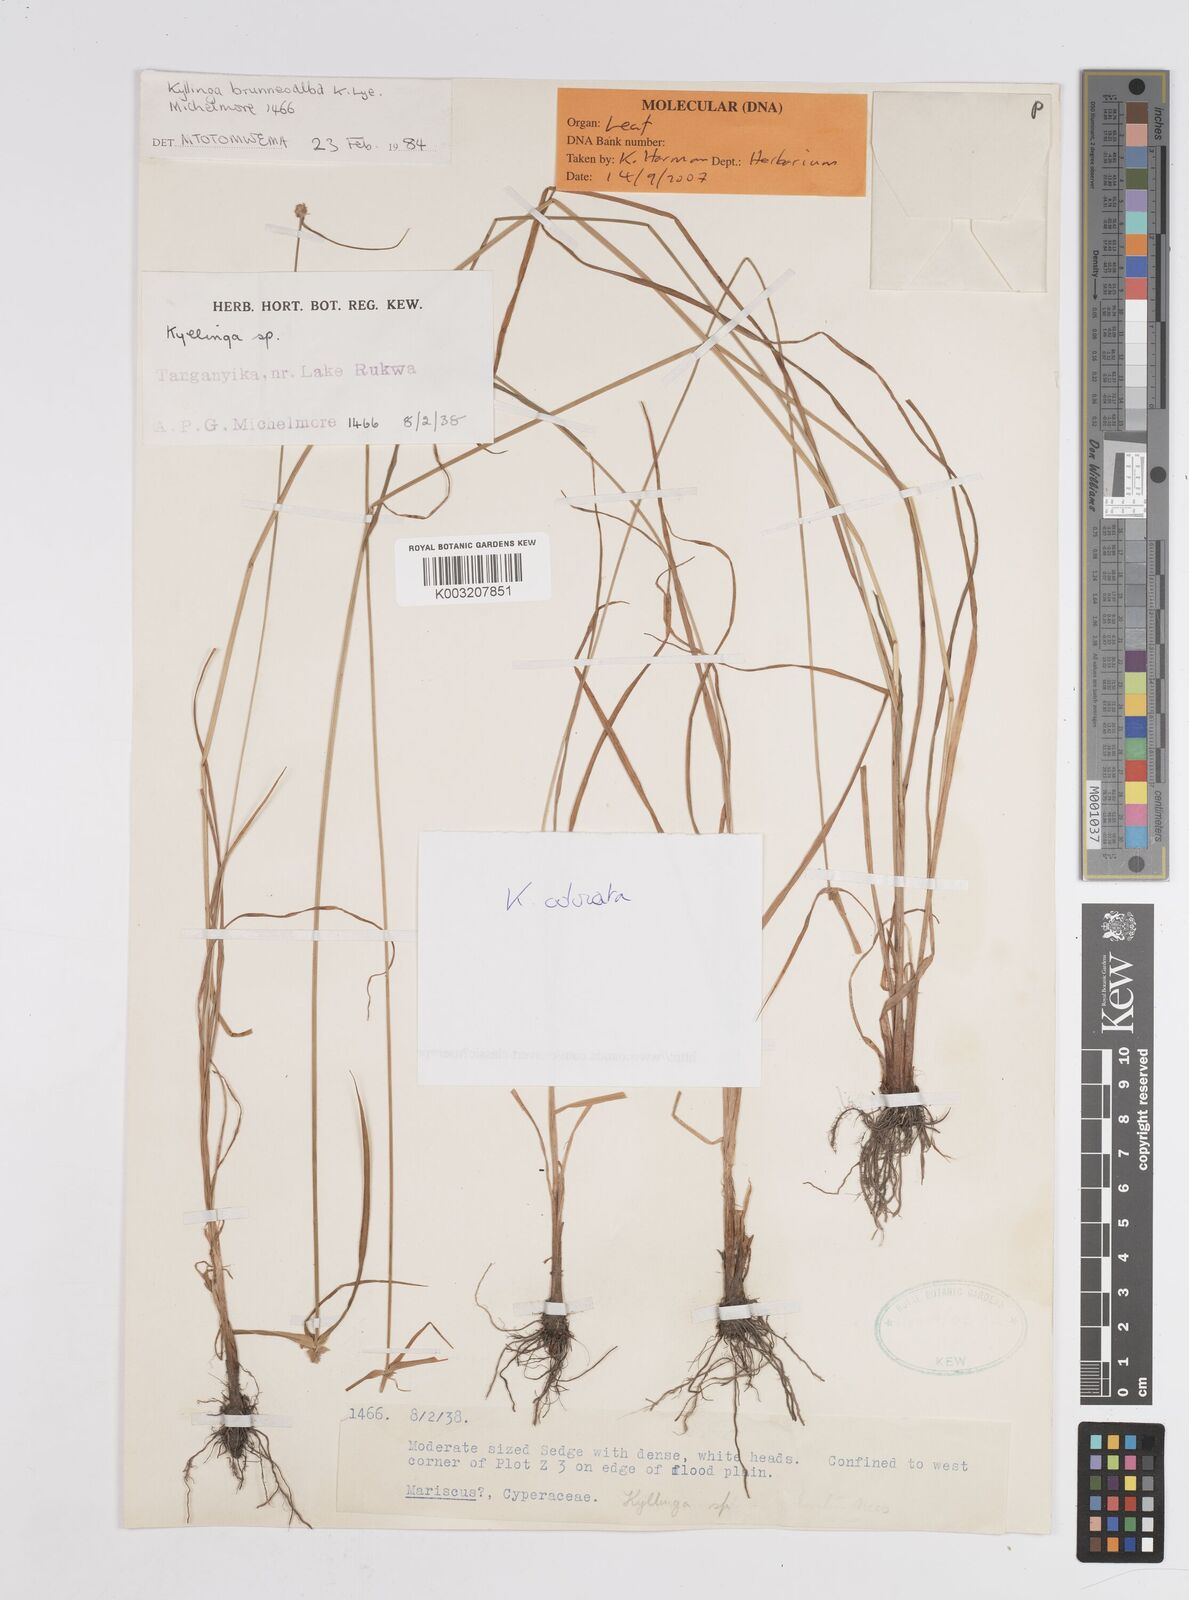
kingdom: Plantae
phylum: Tracheophyta
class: Liliopsida
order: Poales
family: Cyperaceae
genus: Cyperus
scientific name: Cyperus sesquiflorus
